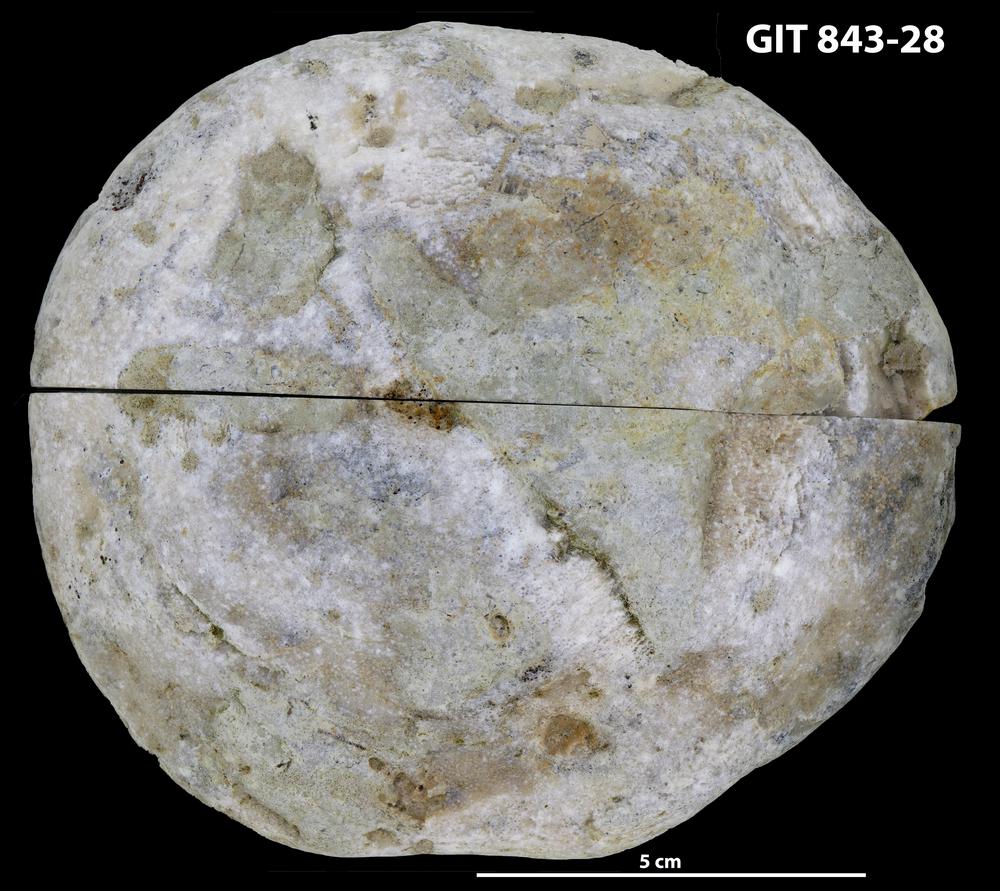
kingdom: Animalia
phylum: Bryozoa
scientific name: Bryozoa
